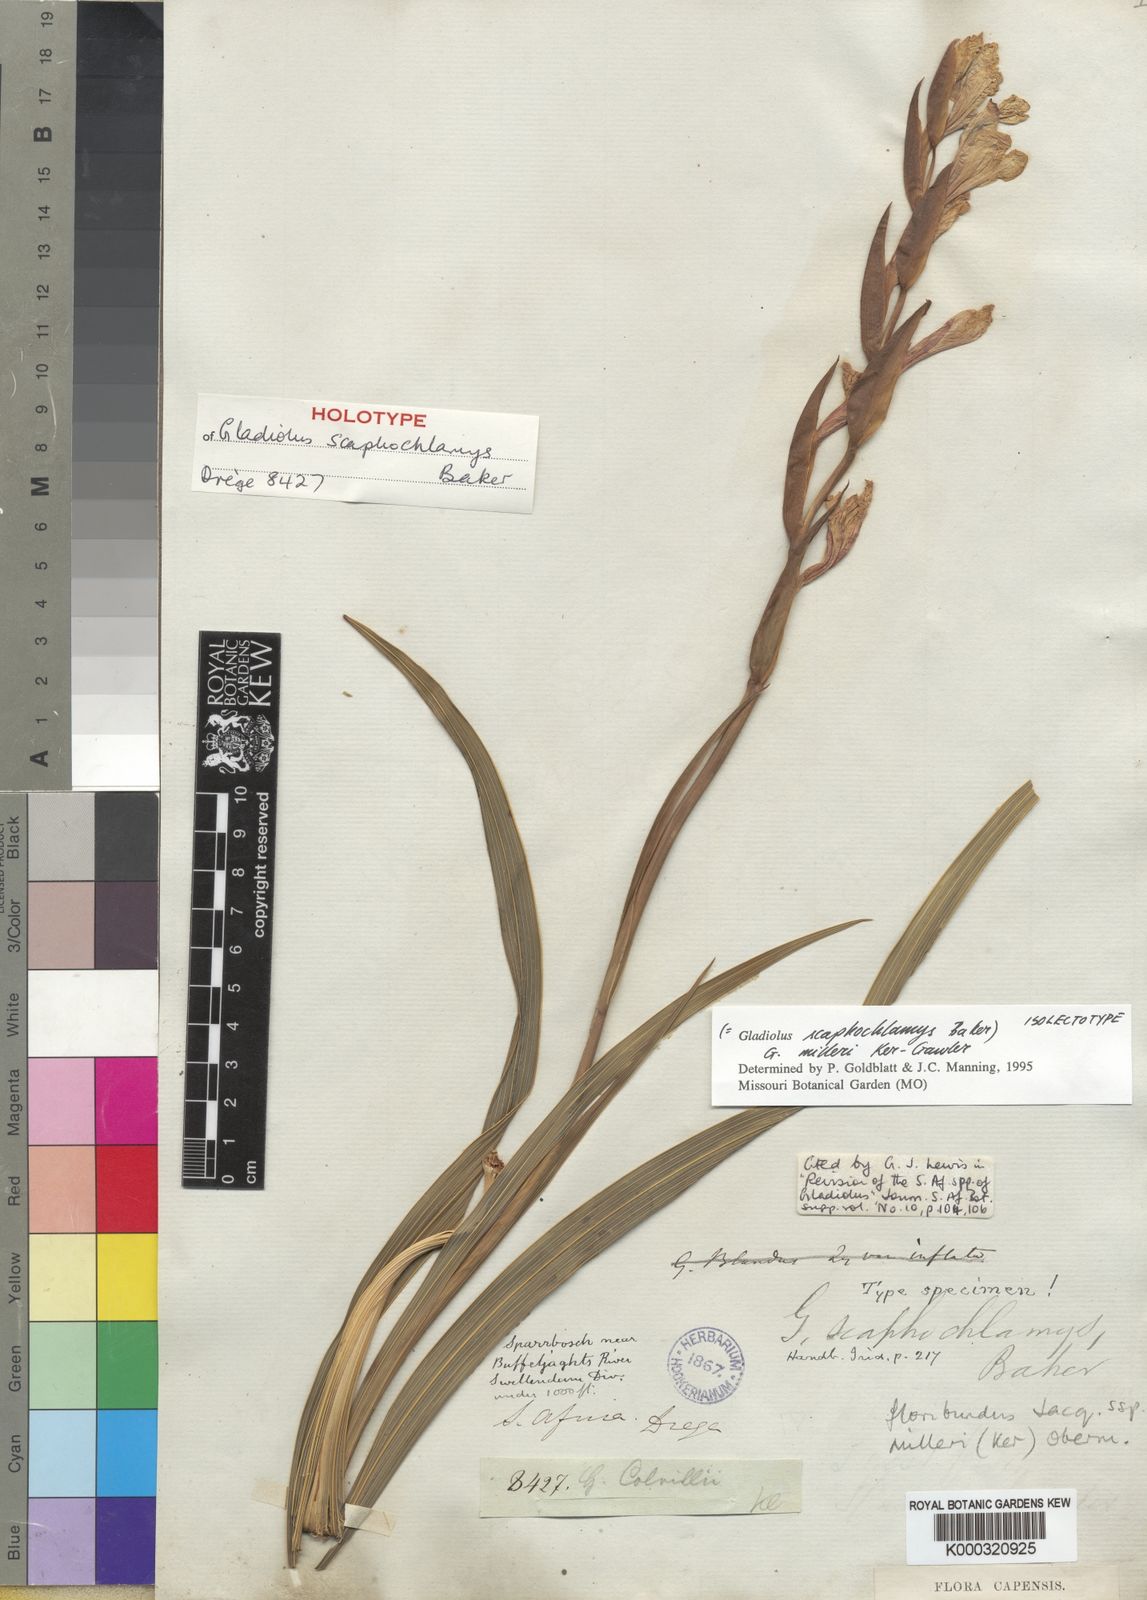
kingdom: Plantae
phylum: Tracheophyta
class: Liliopsida
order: Asparagales
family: Iridaceae
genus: Gladiolus
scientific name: Gladiolus grandiflorus
